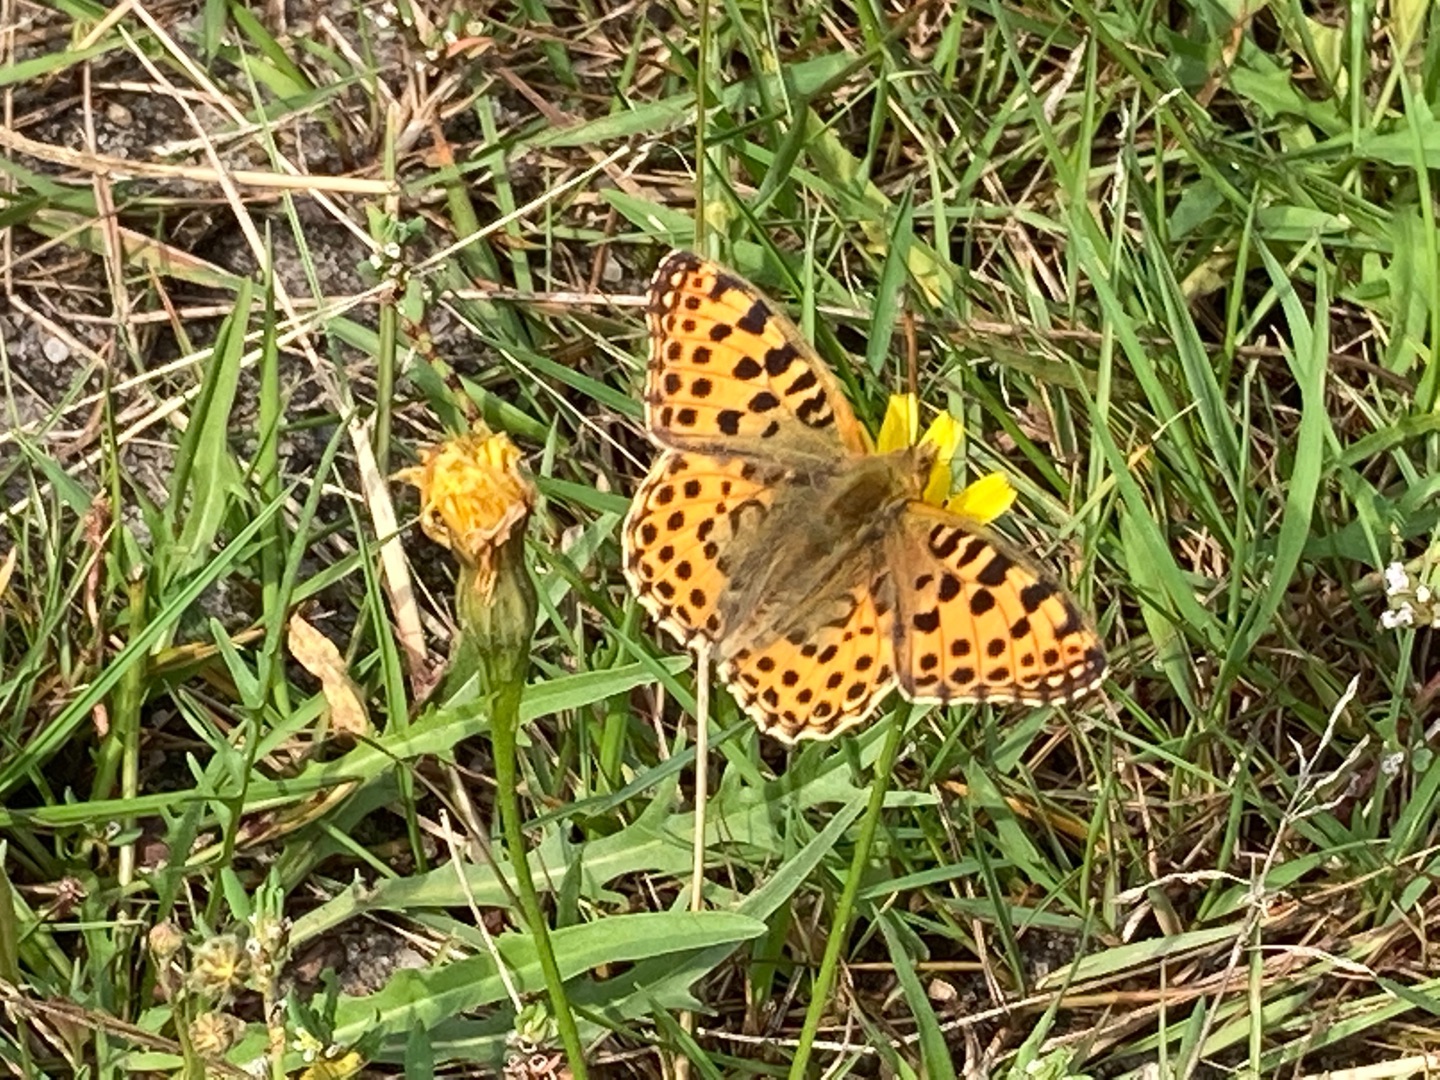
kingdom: Animalia
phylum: Arthropoda
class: Insecta
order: Lepidoptera
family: Nymphalidae
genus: Issoria
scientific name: Issoria lathonia
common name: Storplettet perlemorsommerfugl
